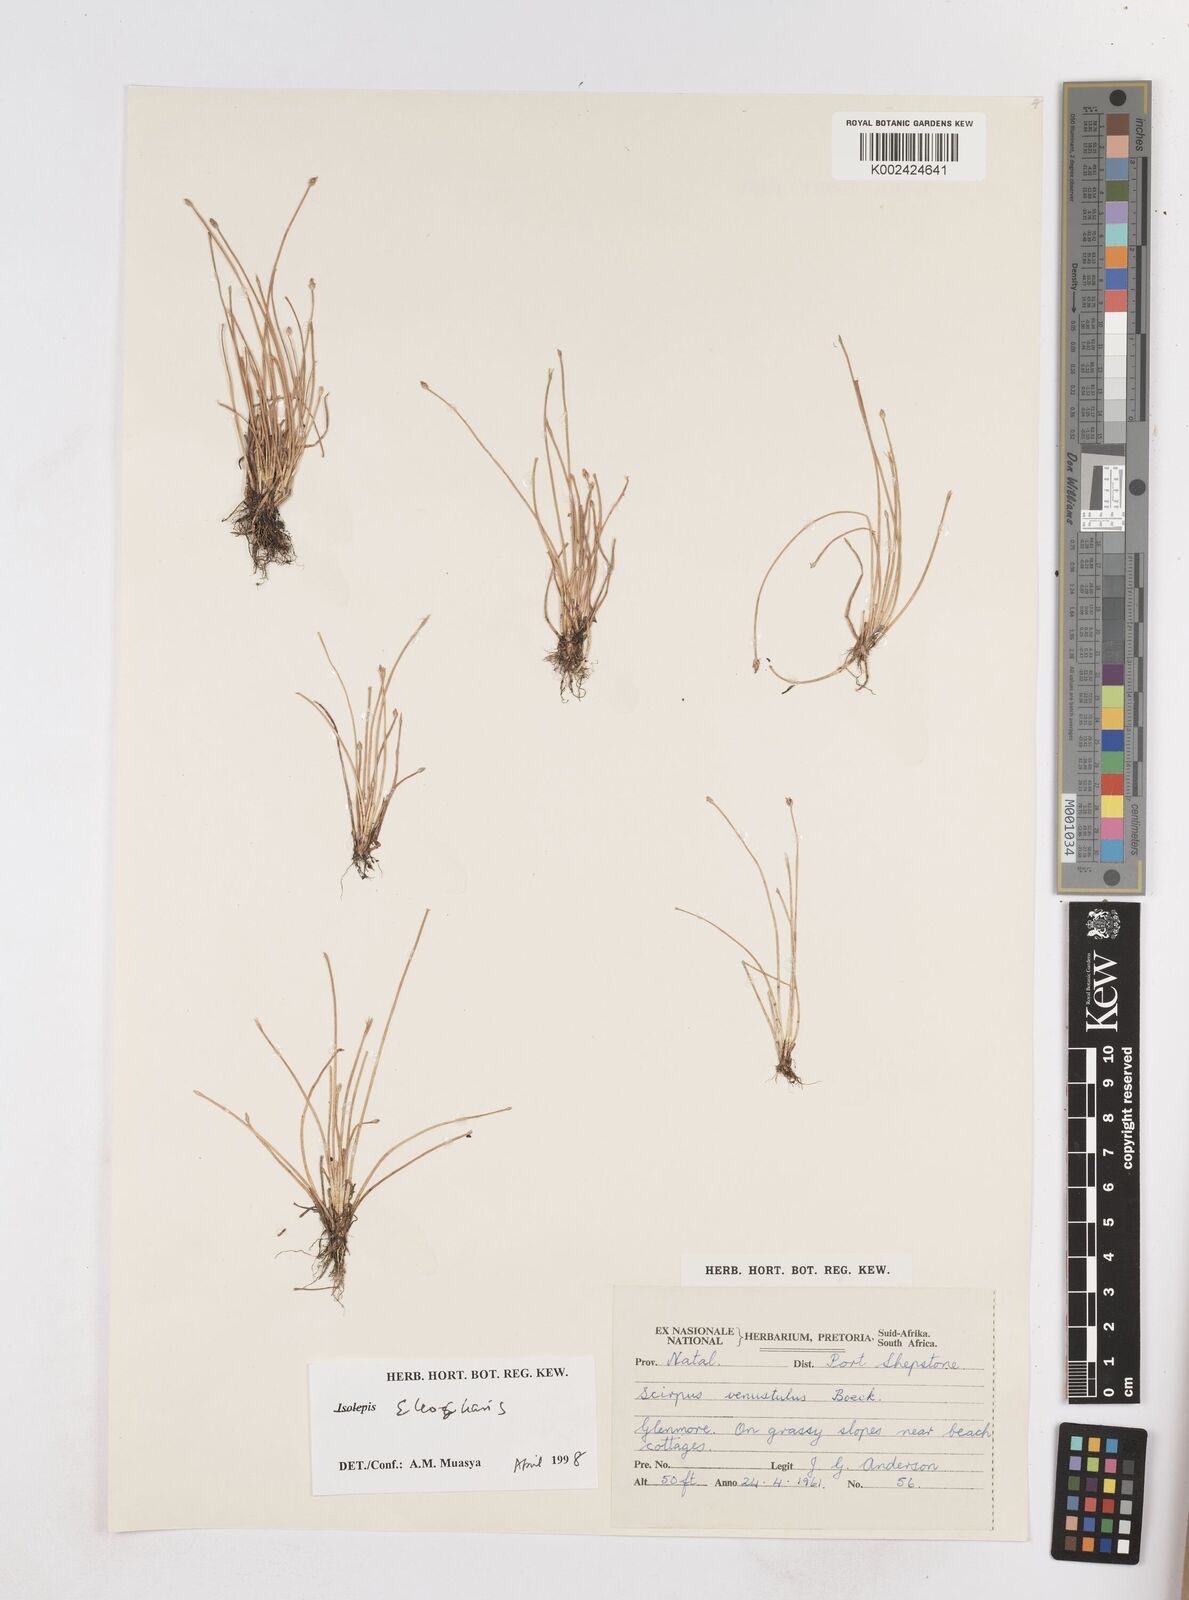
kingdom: Plantae
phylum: Tracheophyta
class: Liliopsida
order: Poales
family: Cyperaceae
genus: Eleocharis
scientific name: Eleocharis
